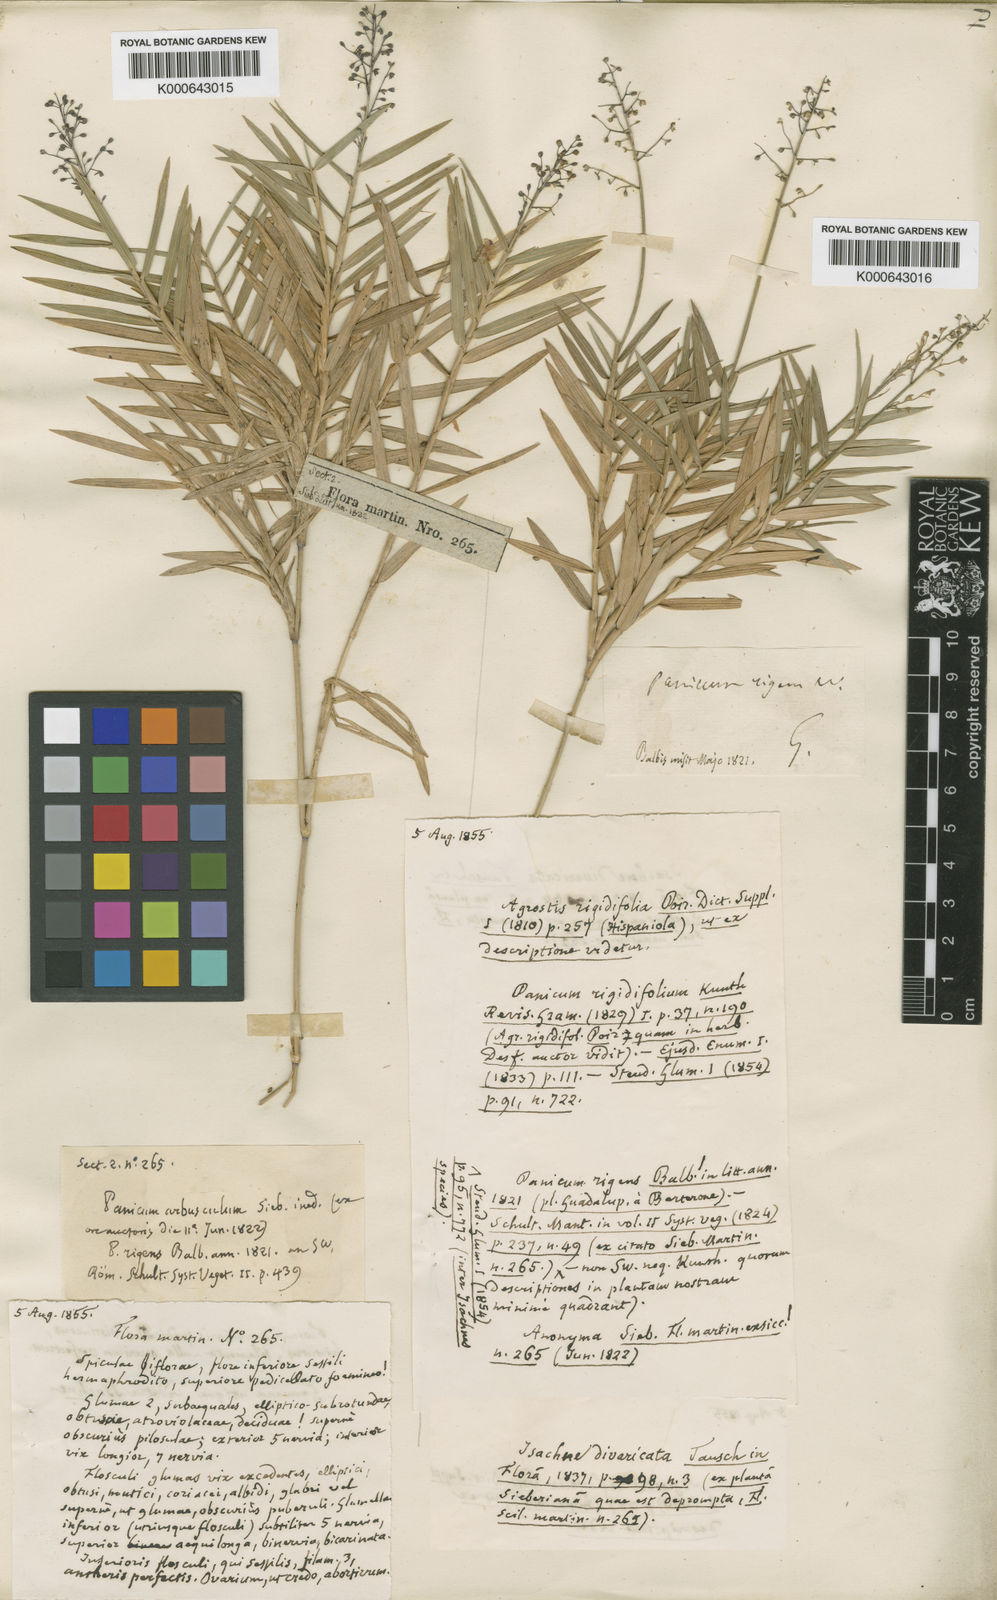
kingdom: Plantae
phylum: Tracheophyta
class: Liliopsida
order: Poales
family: Poaceae
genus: Isachne
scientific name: Isachne rigidifolia
